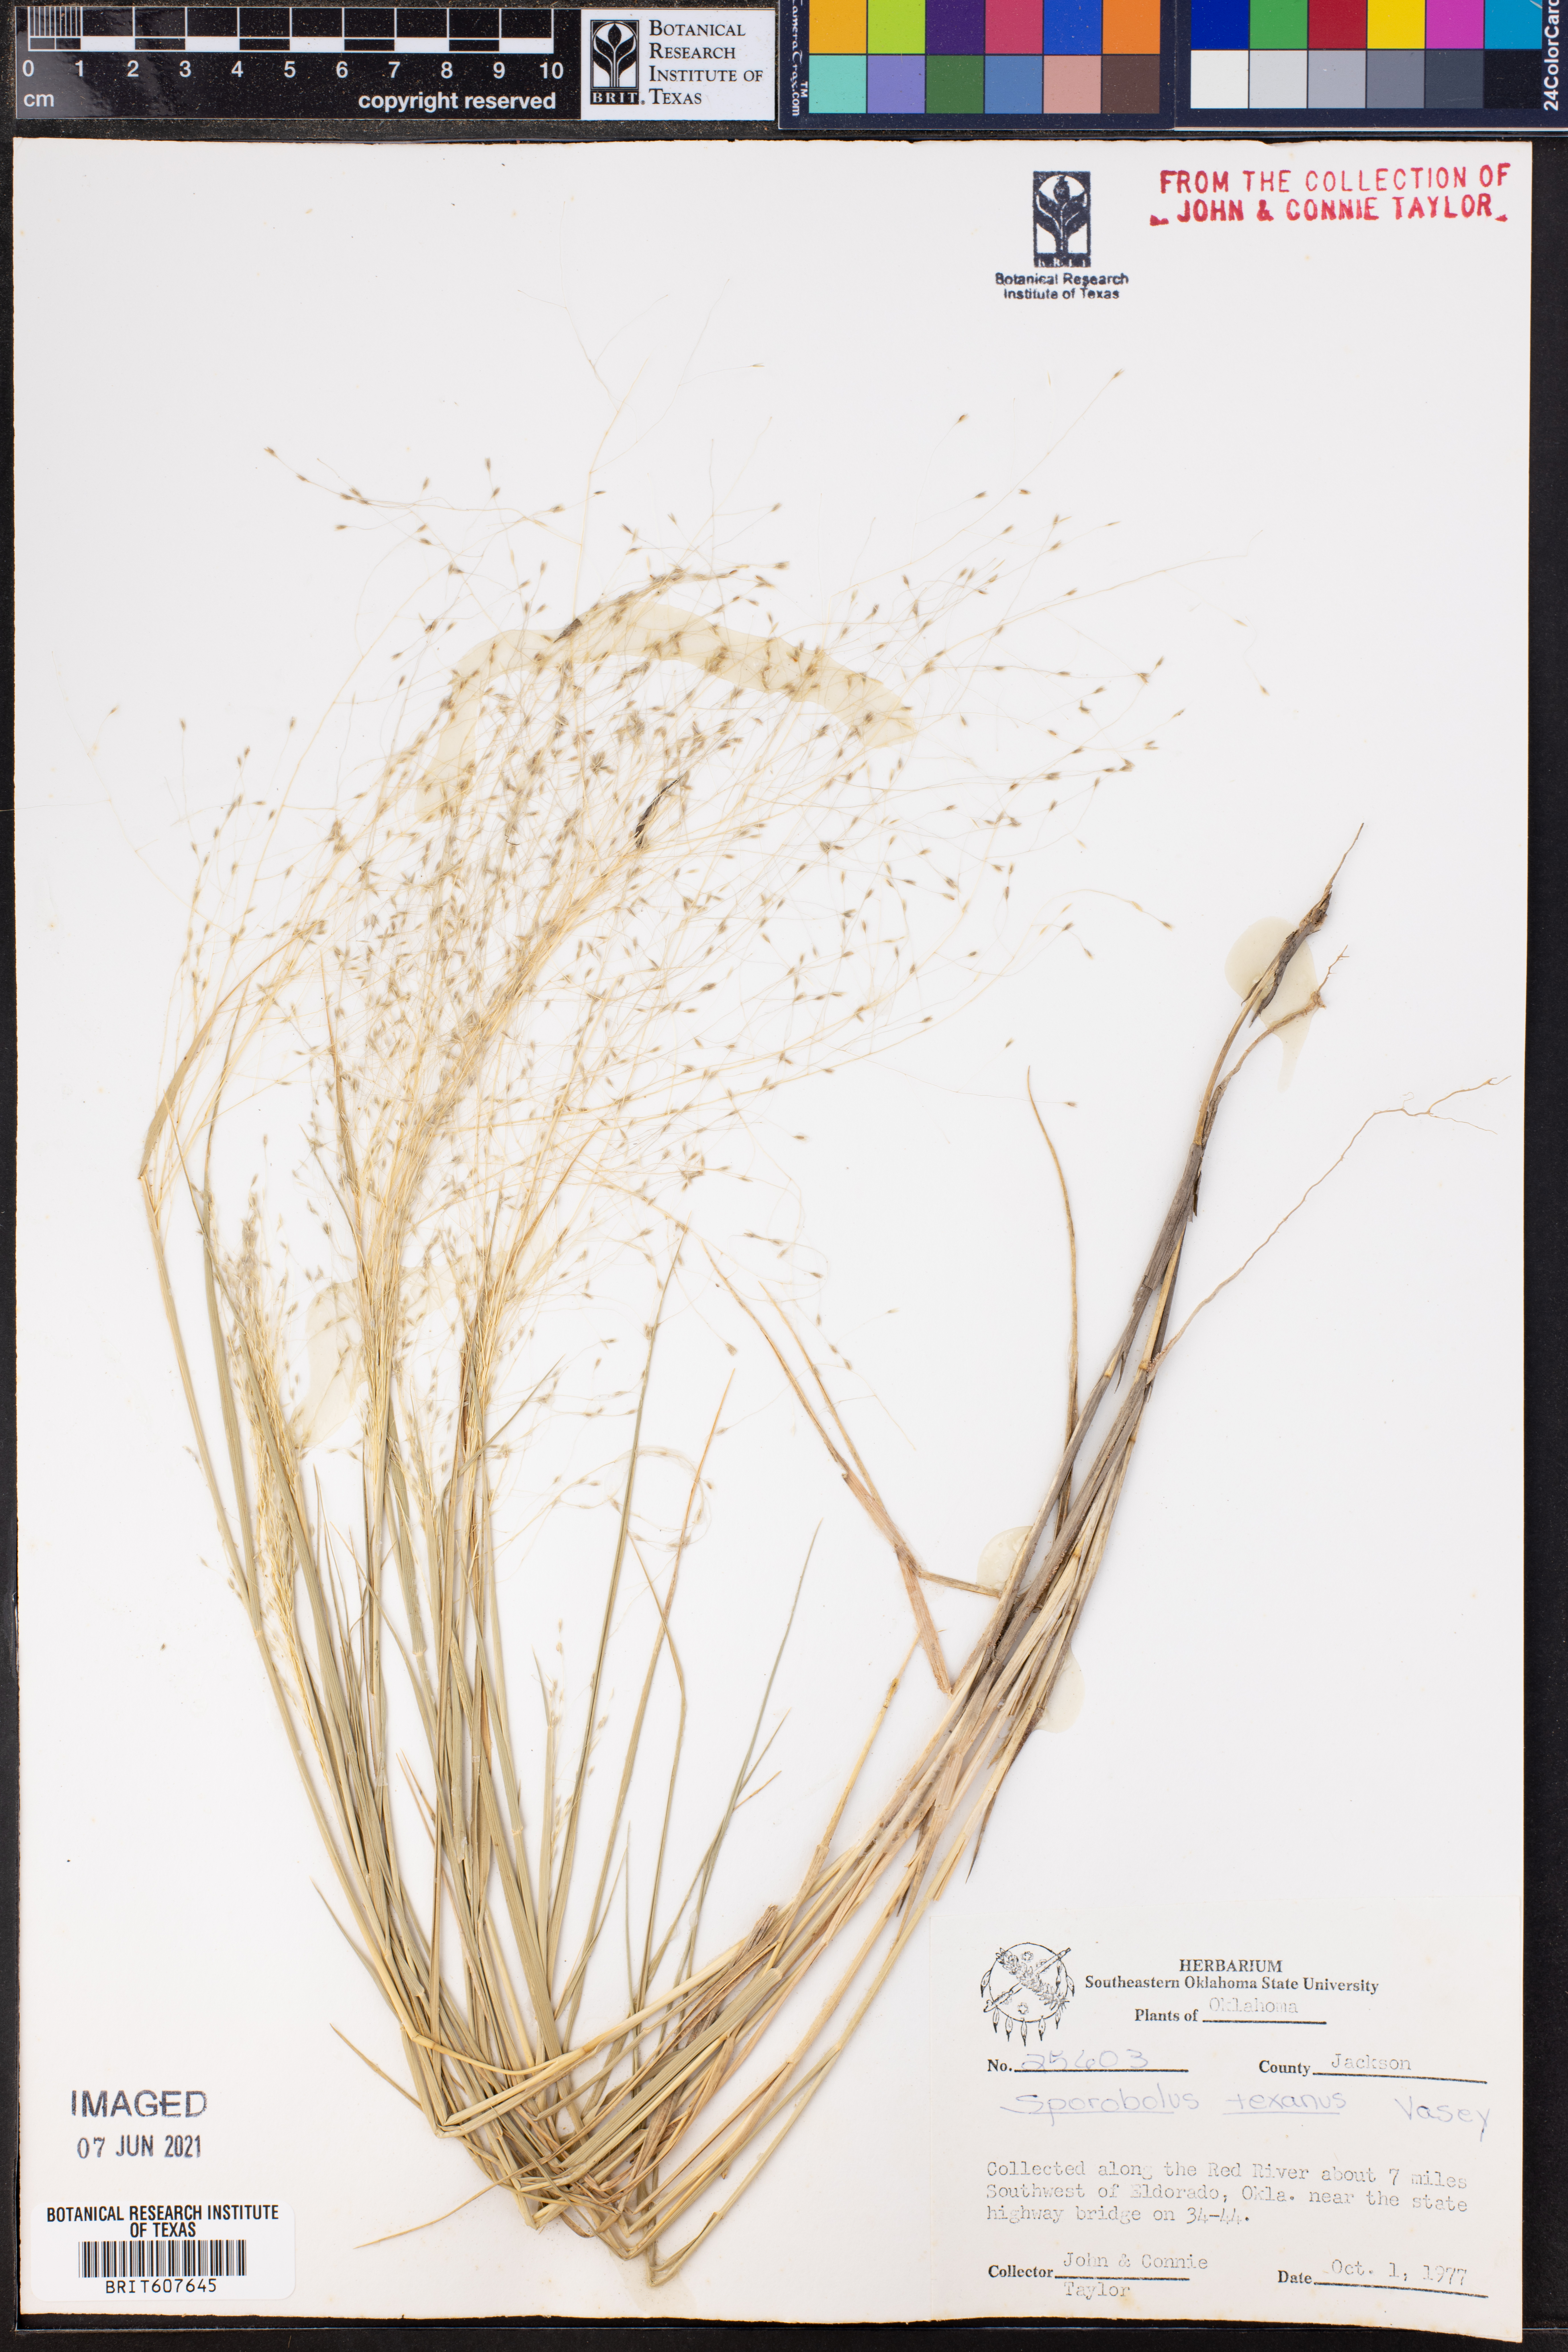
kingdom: Plantae
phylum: Tracheophyta
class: Liliopsida
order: Poales
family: Poaceae
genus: Sporobolus
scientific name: Sporobolus texanus
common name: Texas dropseed
